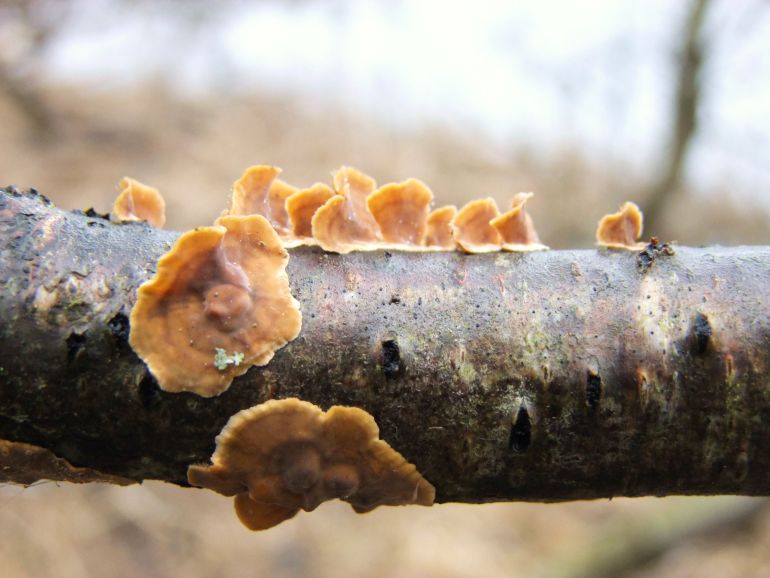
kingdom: Fungi
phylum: Basidiomycota
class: Agaricomycetes
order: Russulales
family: Stereaceae
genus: Stereum
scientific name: Stereum hirsutum
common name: håret lædersvamp
